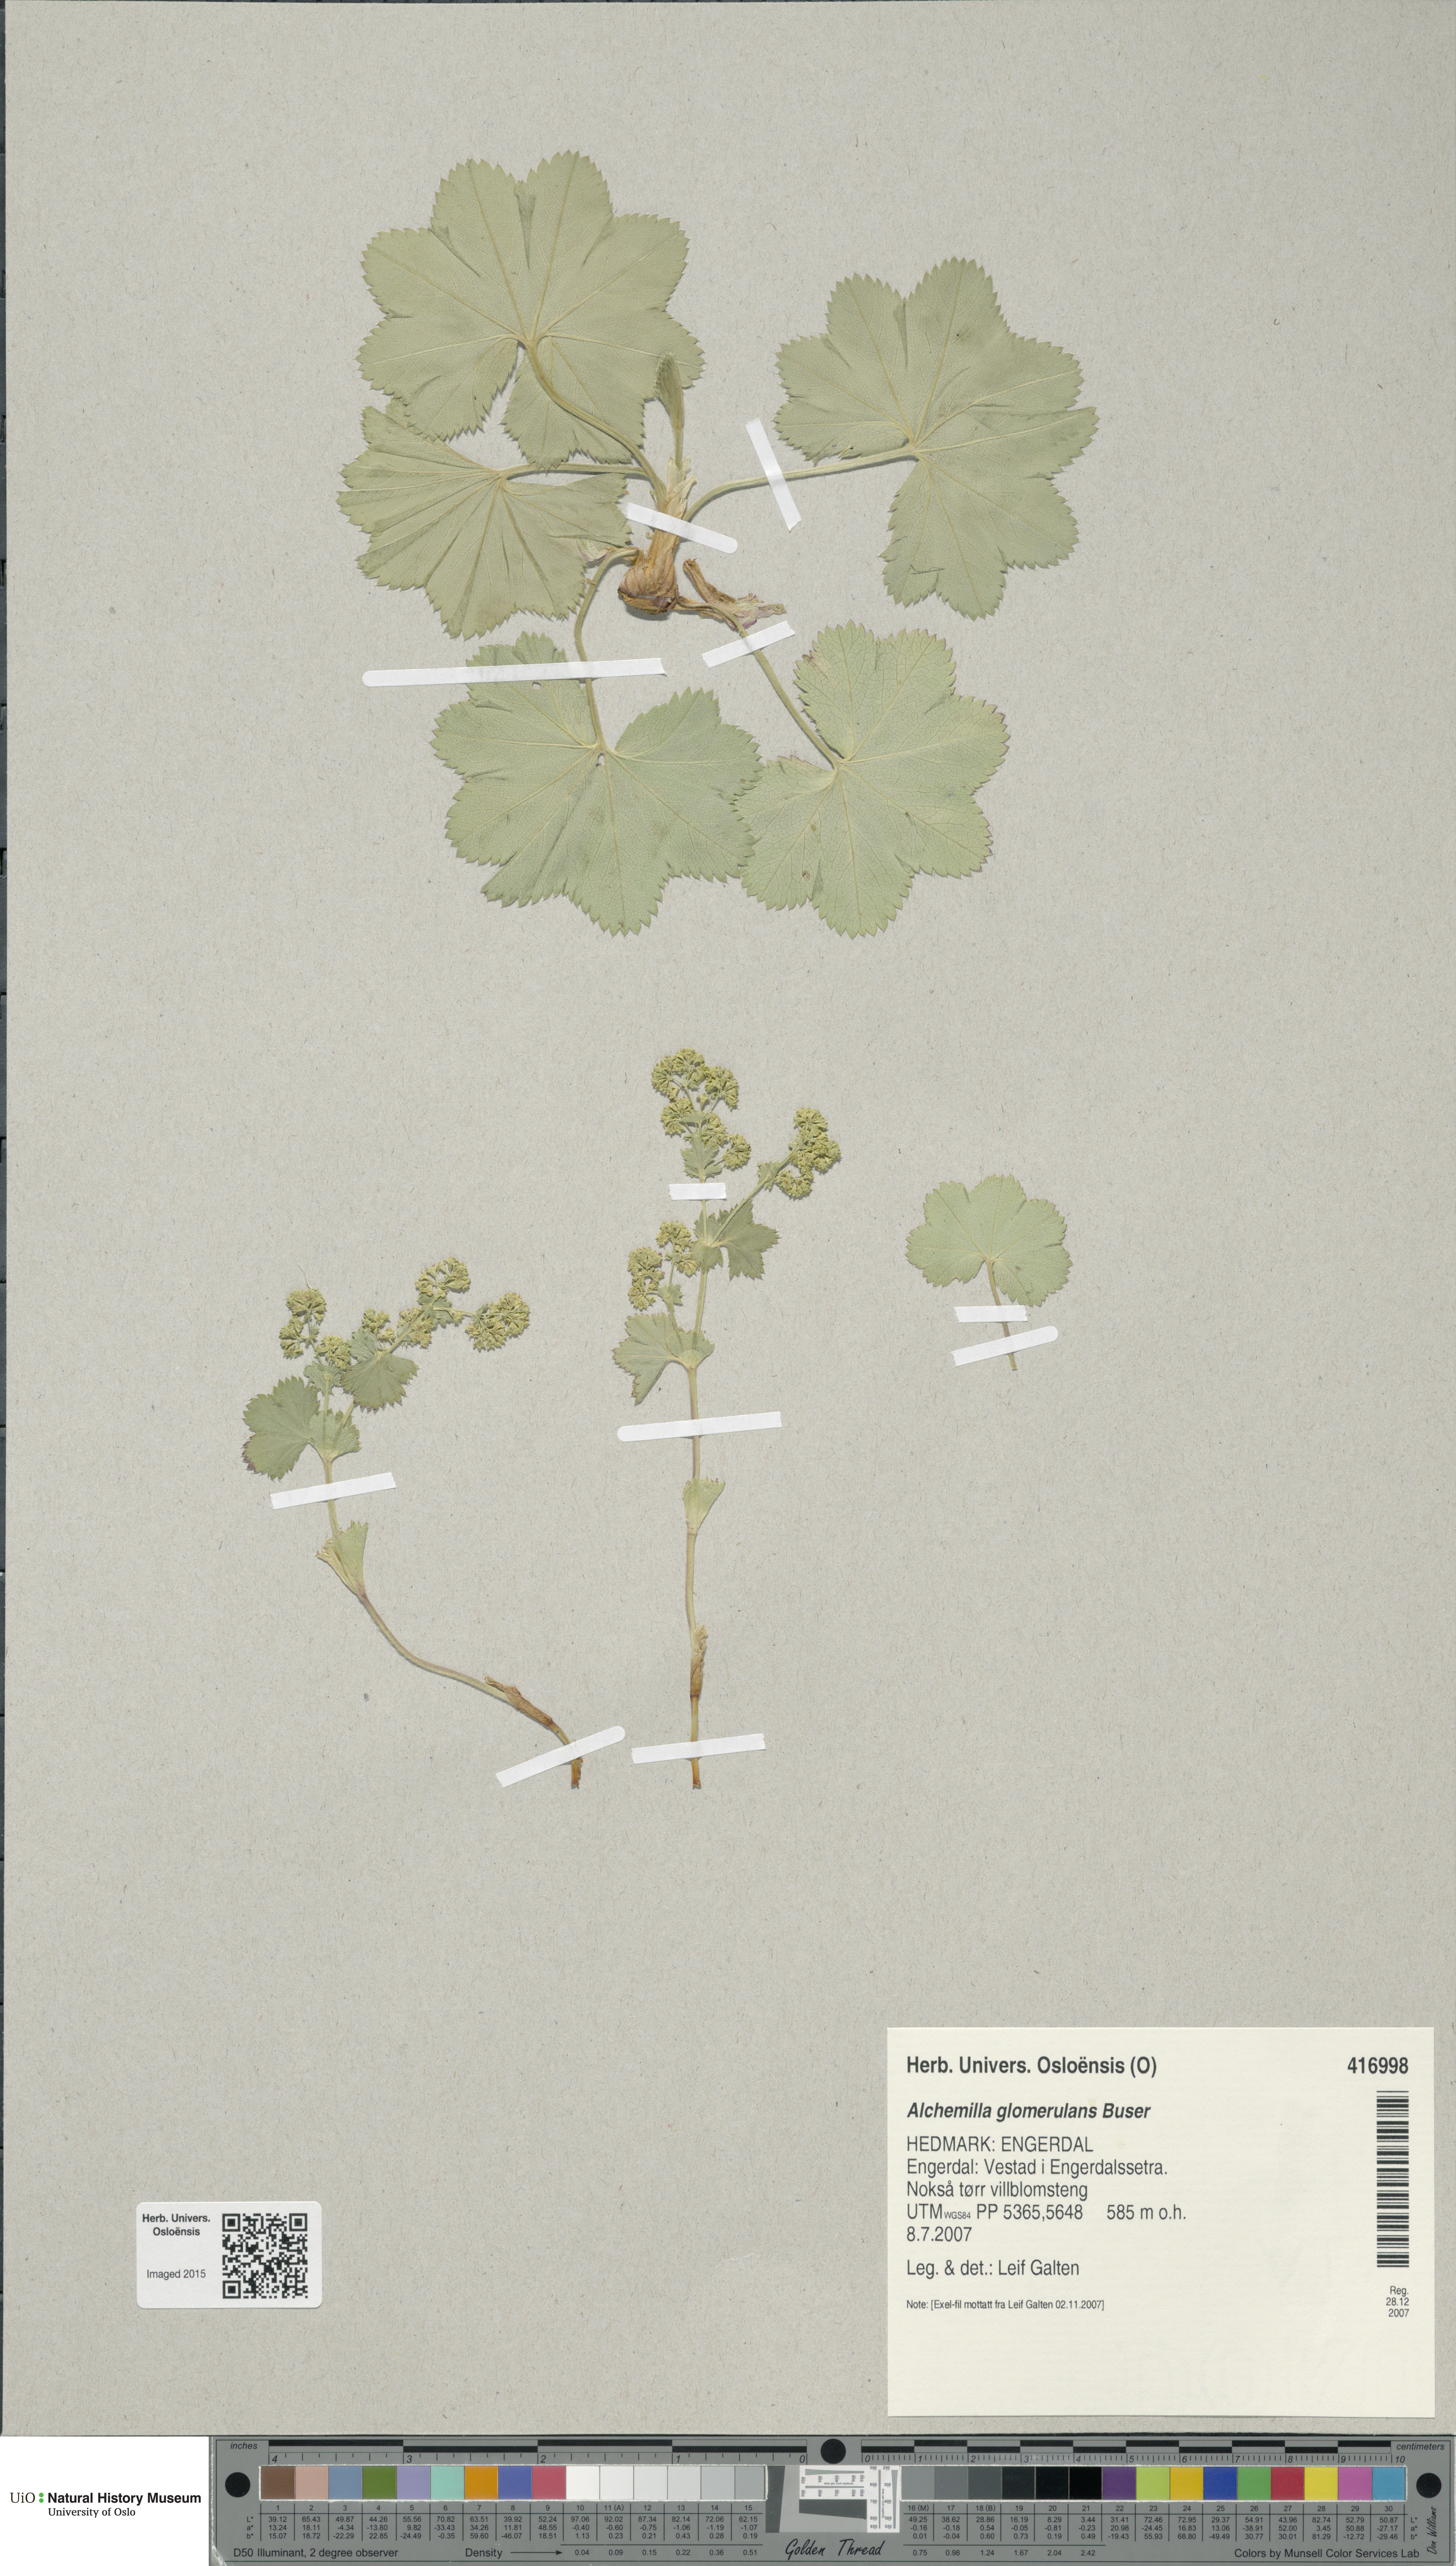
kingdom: Plantae
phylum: Tracheophyta
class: Magnoliopsida
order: Rosales
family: Rosaceae
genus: Alchemilla
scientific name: Alchemilla glomerulans
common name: Clustered lady's mantle
